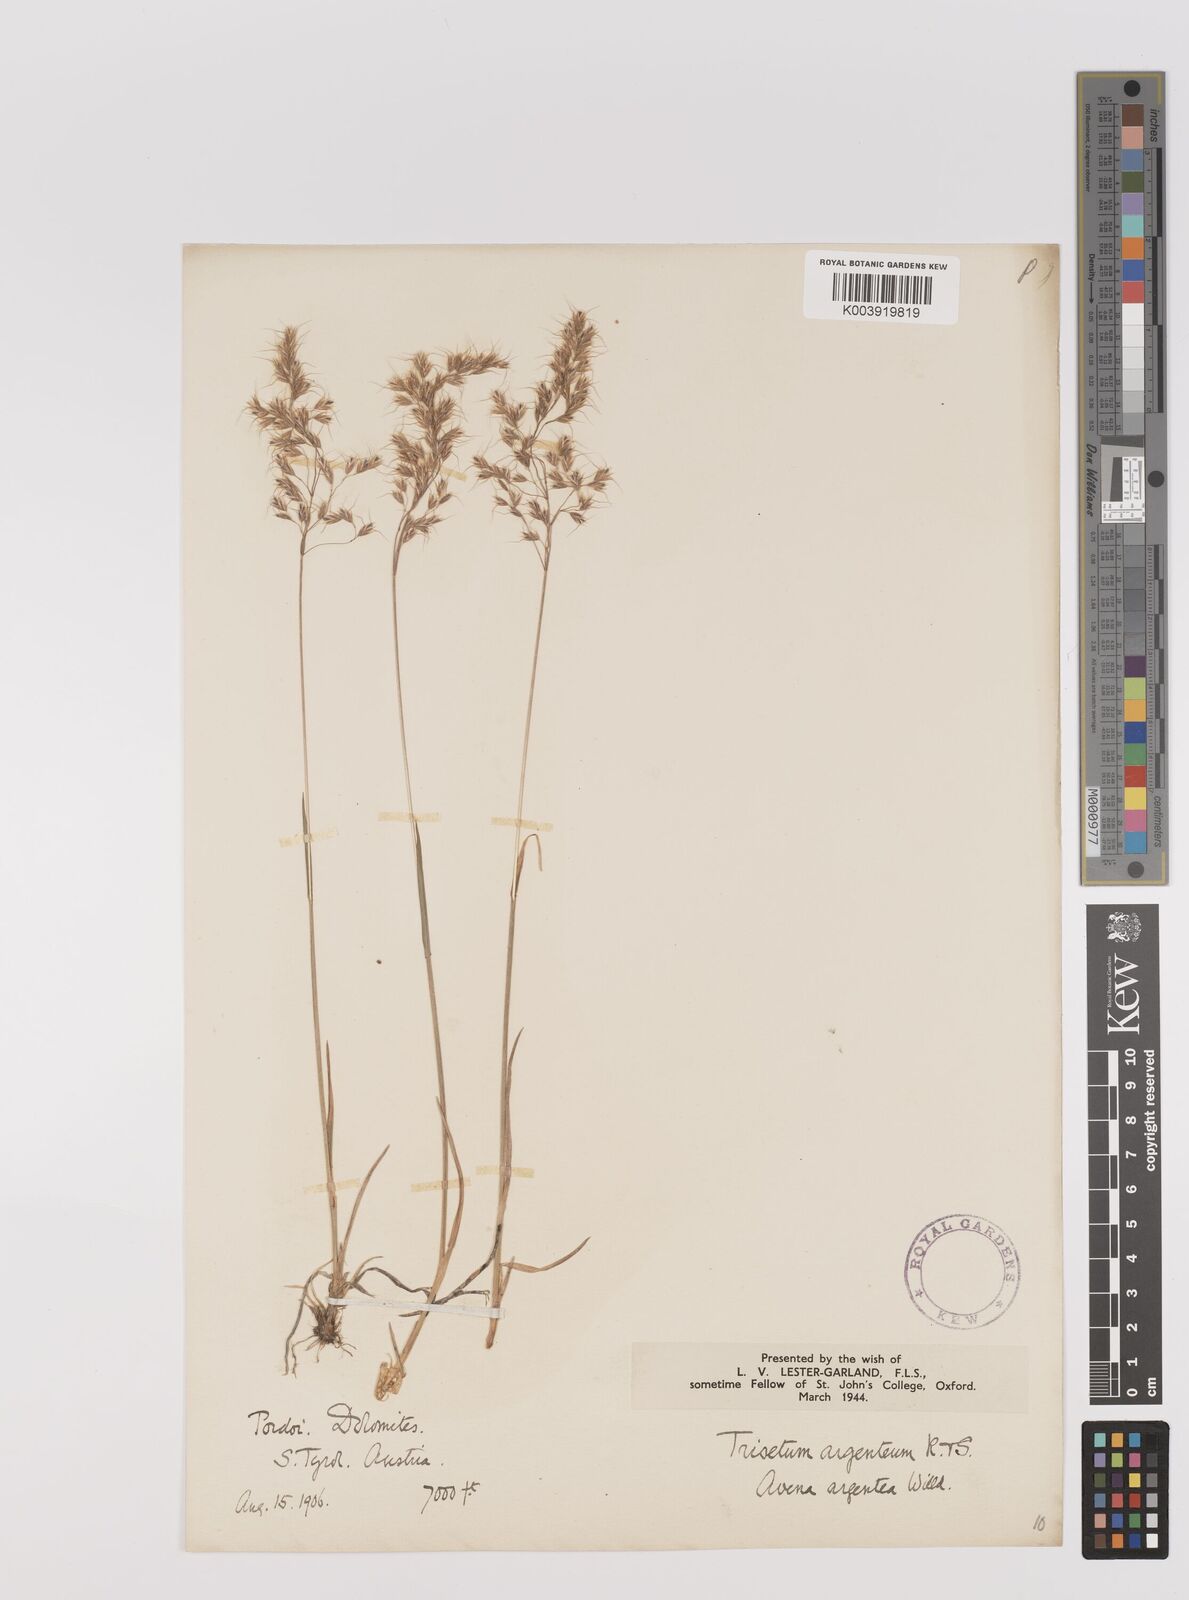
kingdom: Plantae
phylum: Tracheophyta
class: Liliopsida
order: Poales
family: Poaceae
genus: Trisetum
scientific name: Trisetum flavescens
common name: Yellow oat-grass
